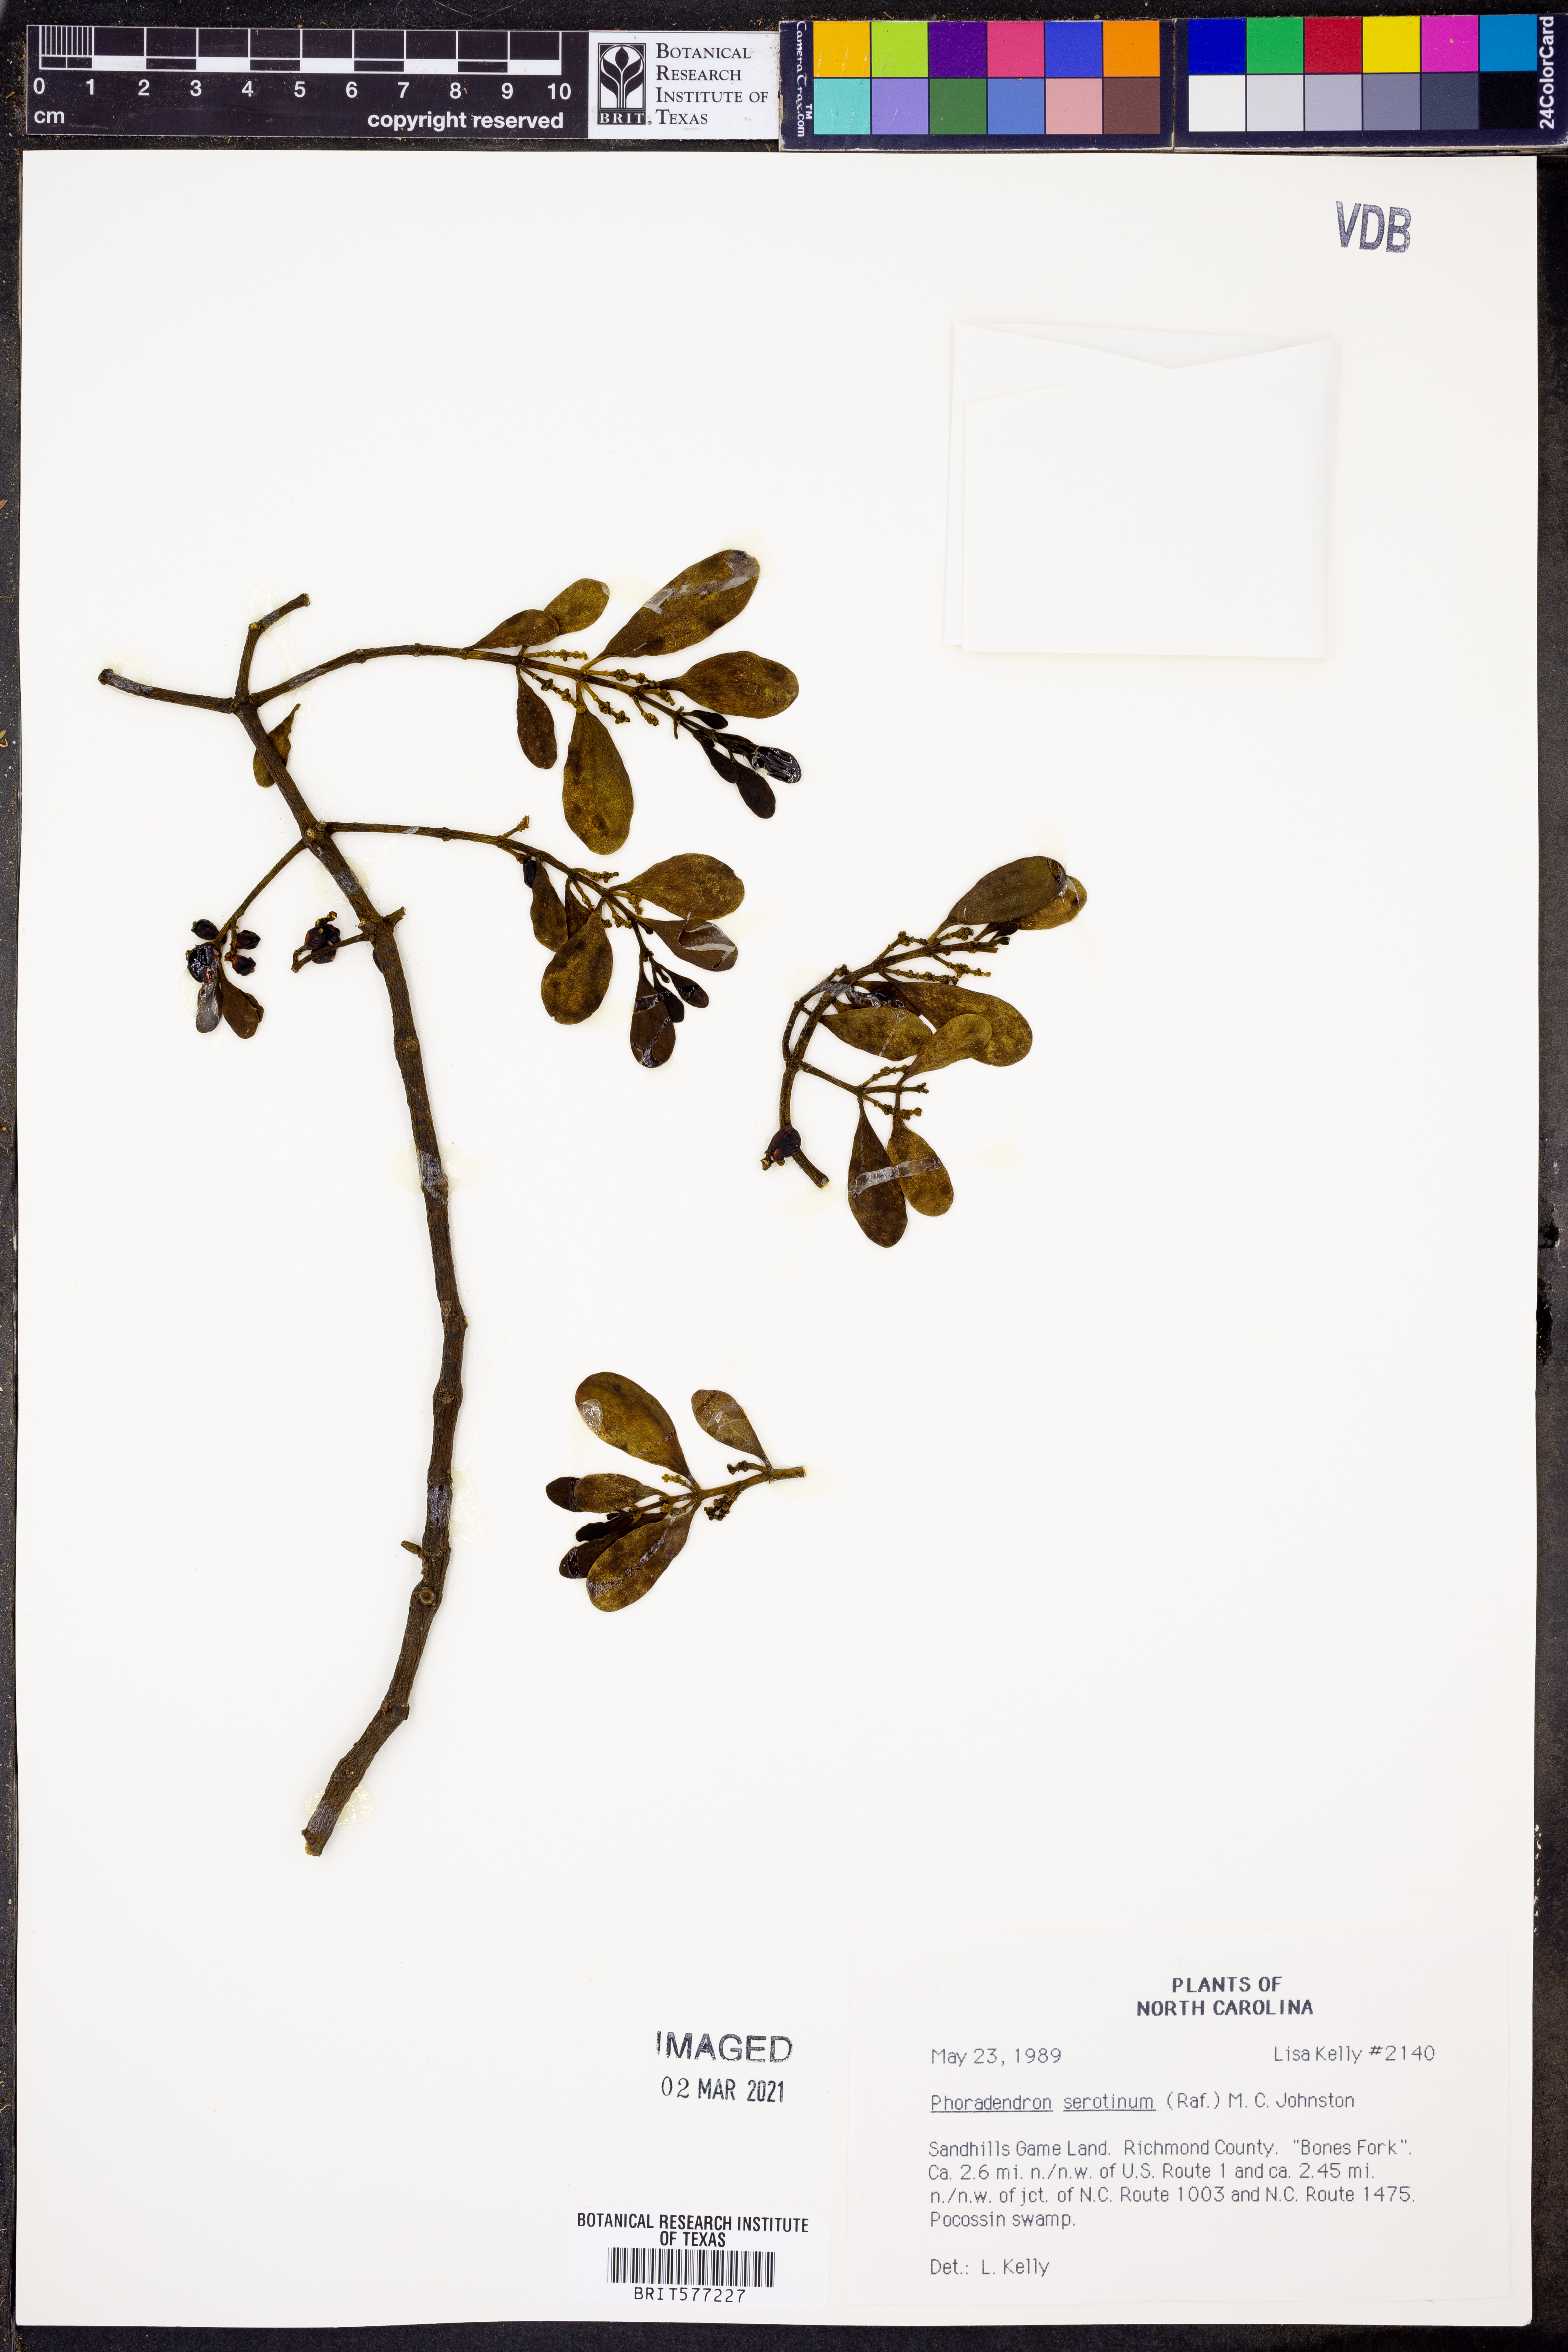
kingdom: Plantae
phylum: Tracheophyta
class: Magnoliopsida
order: Santalales
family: Viscaceae
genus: Phoradendron
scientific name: Phoradendron leucarpum
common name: Pacific mistletoe
